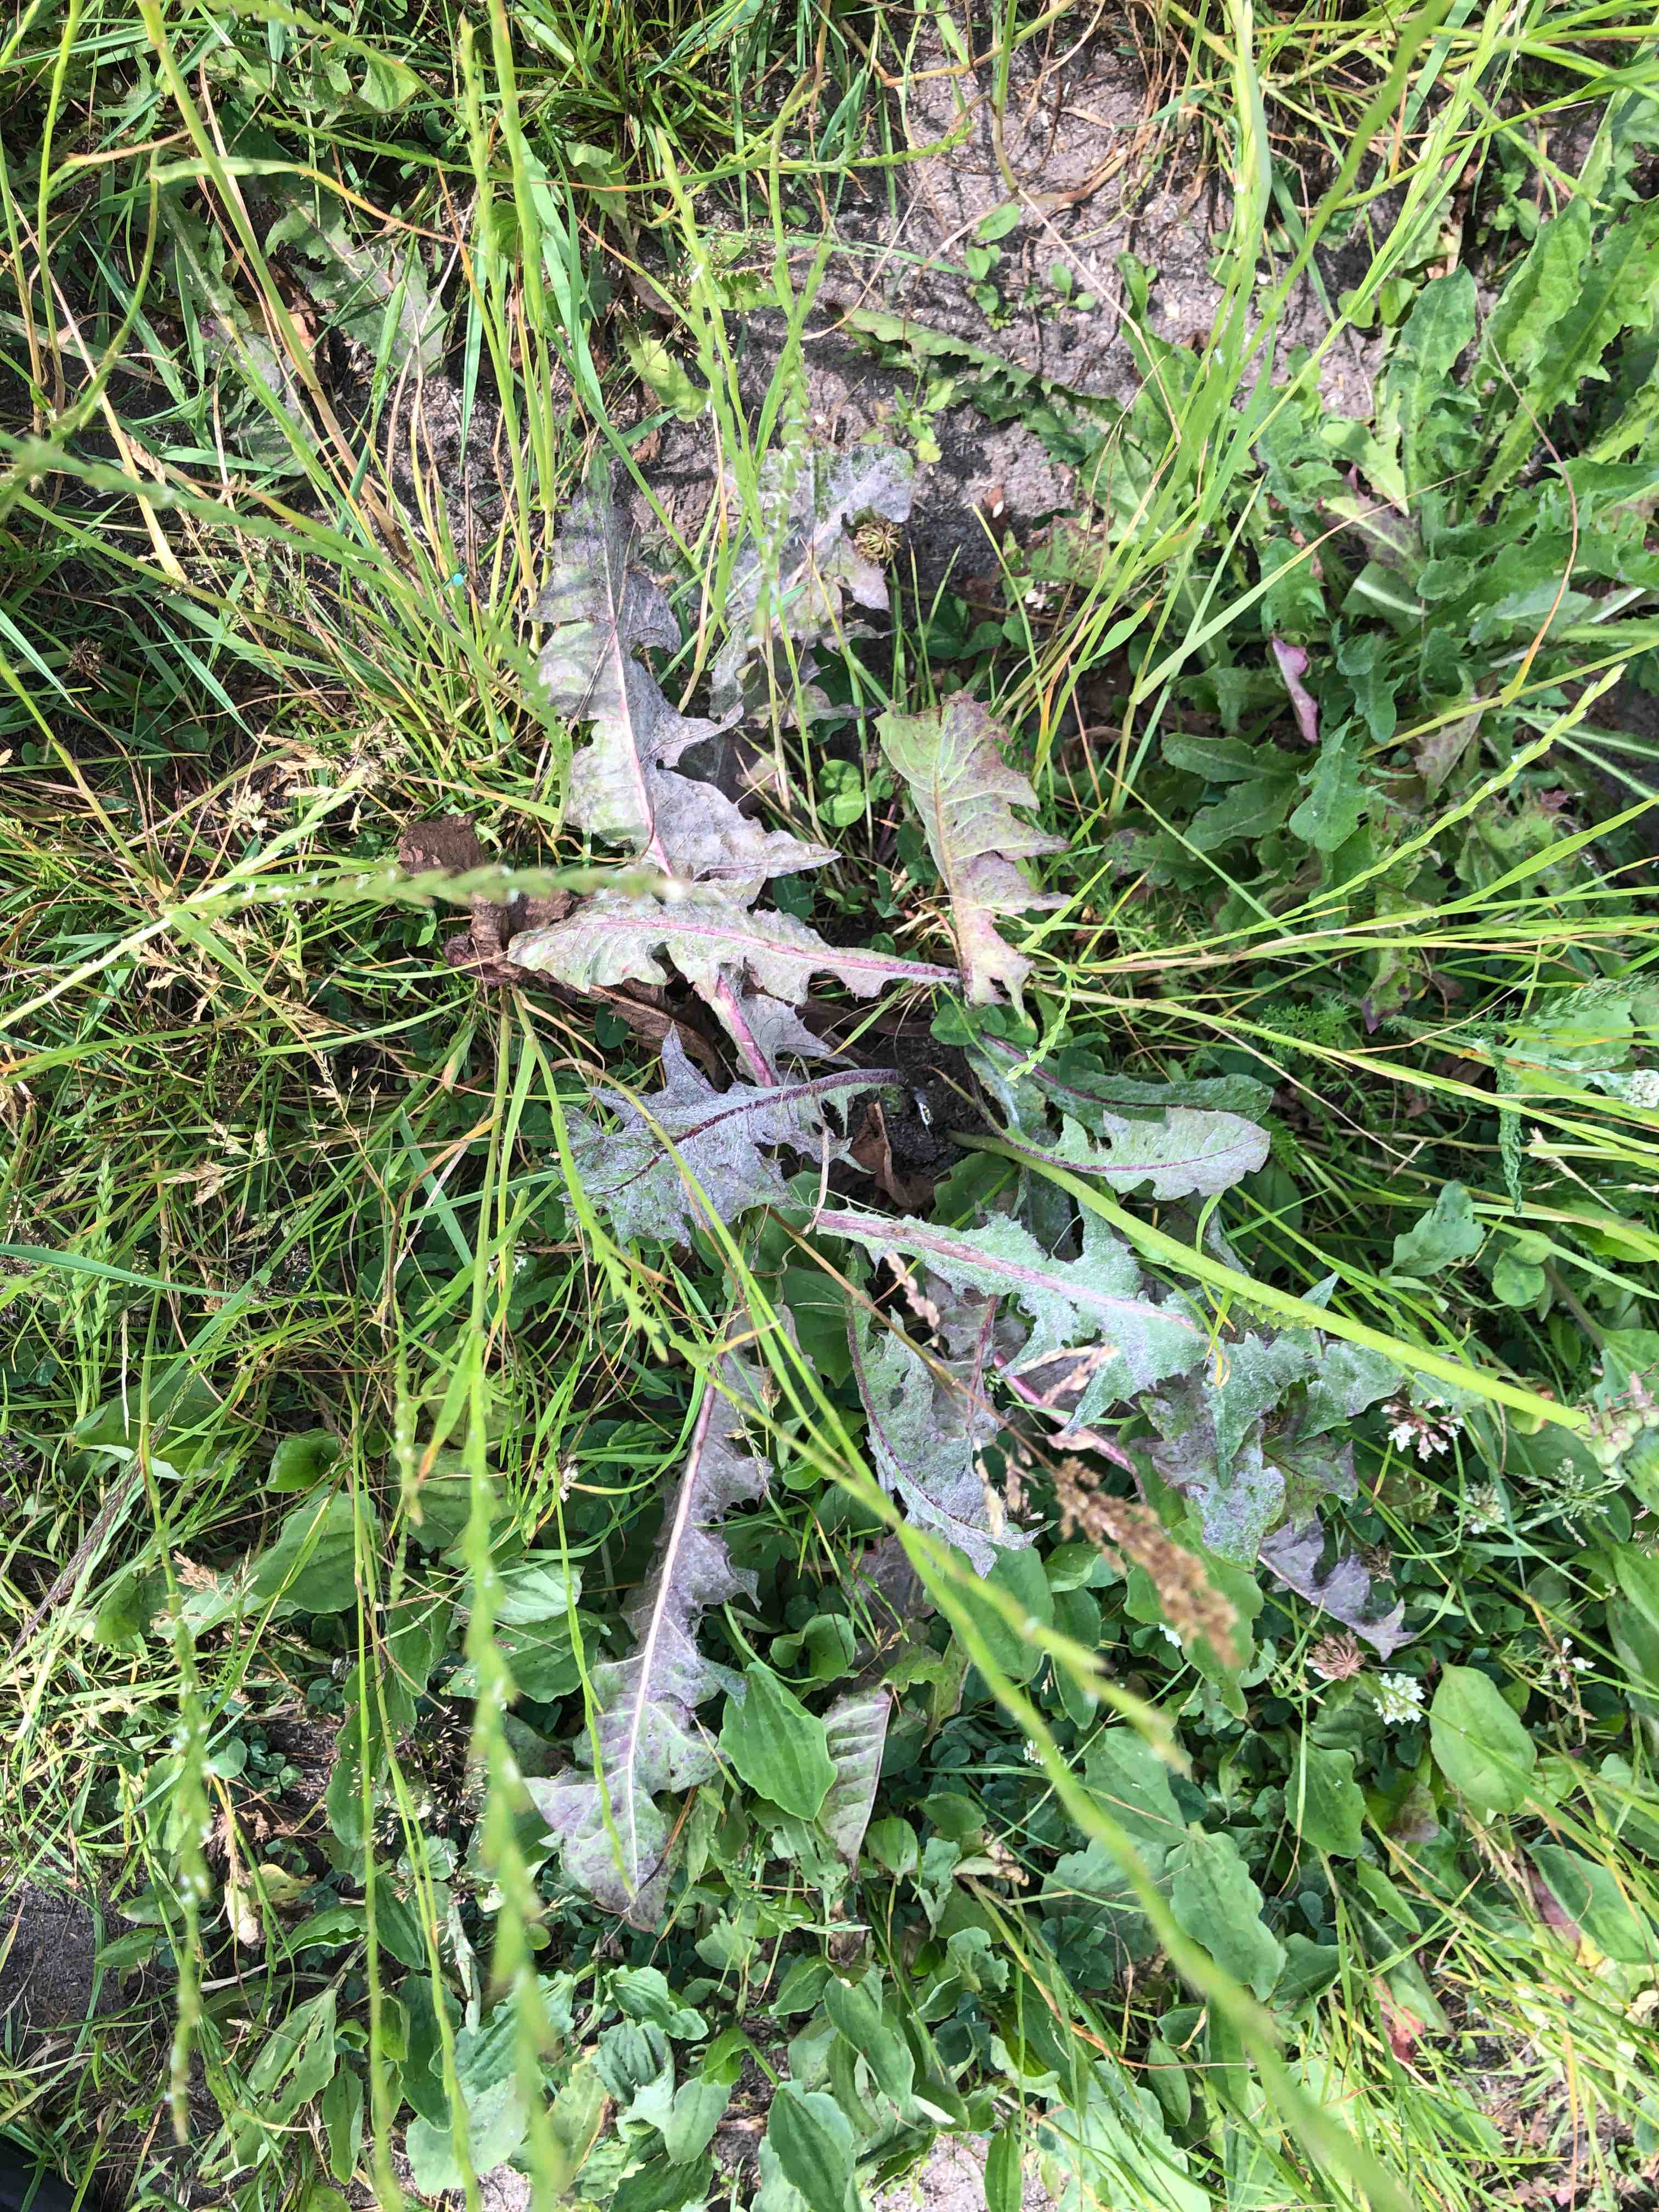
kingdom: Fungi
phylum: Ascomycota
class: Leotiomycetes
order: Helotiales
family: Erysiphaceae
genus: Podosphaera
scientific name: Podosphaera erigerontis-canadensis
